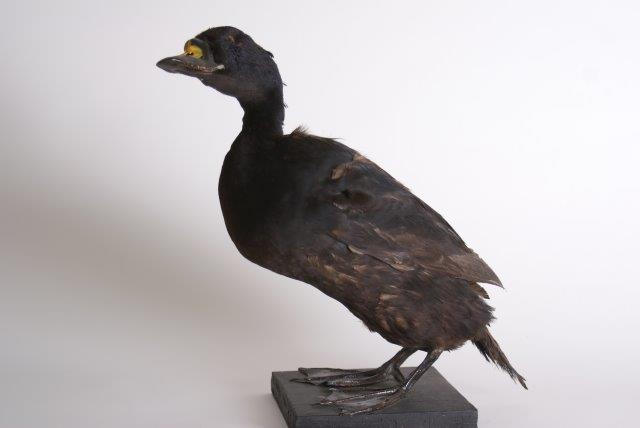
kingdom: Animalia
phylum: Chordata
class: Aves
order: Anseriformes
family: Anatidae
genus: Melanitta
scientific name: Melanitta nigra
